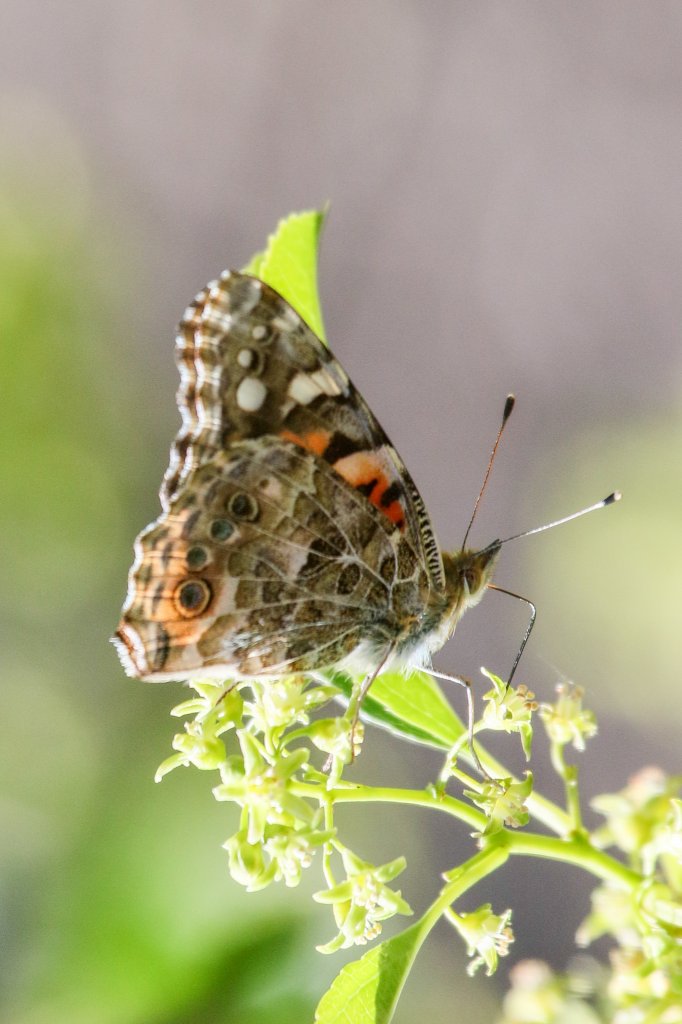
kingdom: Animalia
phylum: Arthropoda
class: Insecta
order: Lepidoptera
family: Nymphalidae
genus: Vanessa
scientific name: Vanessa cardui
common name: Painted Lady
